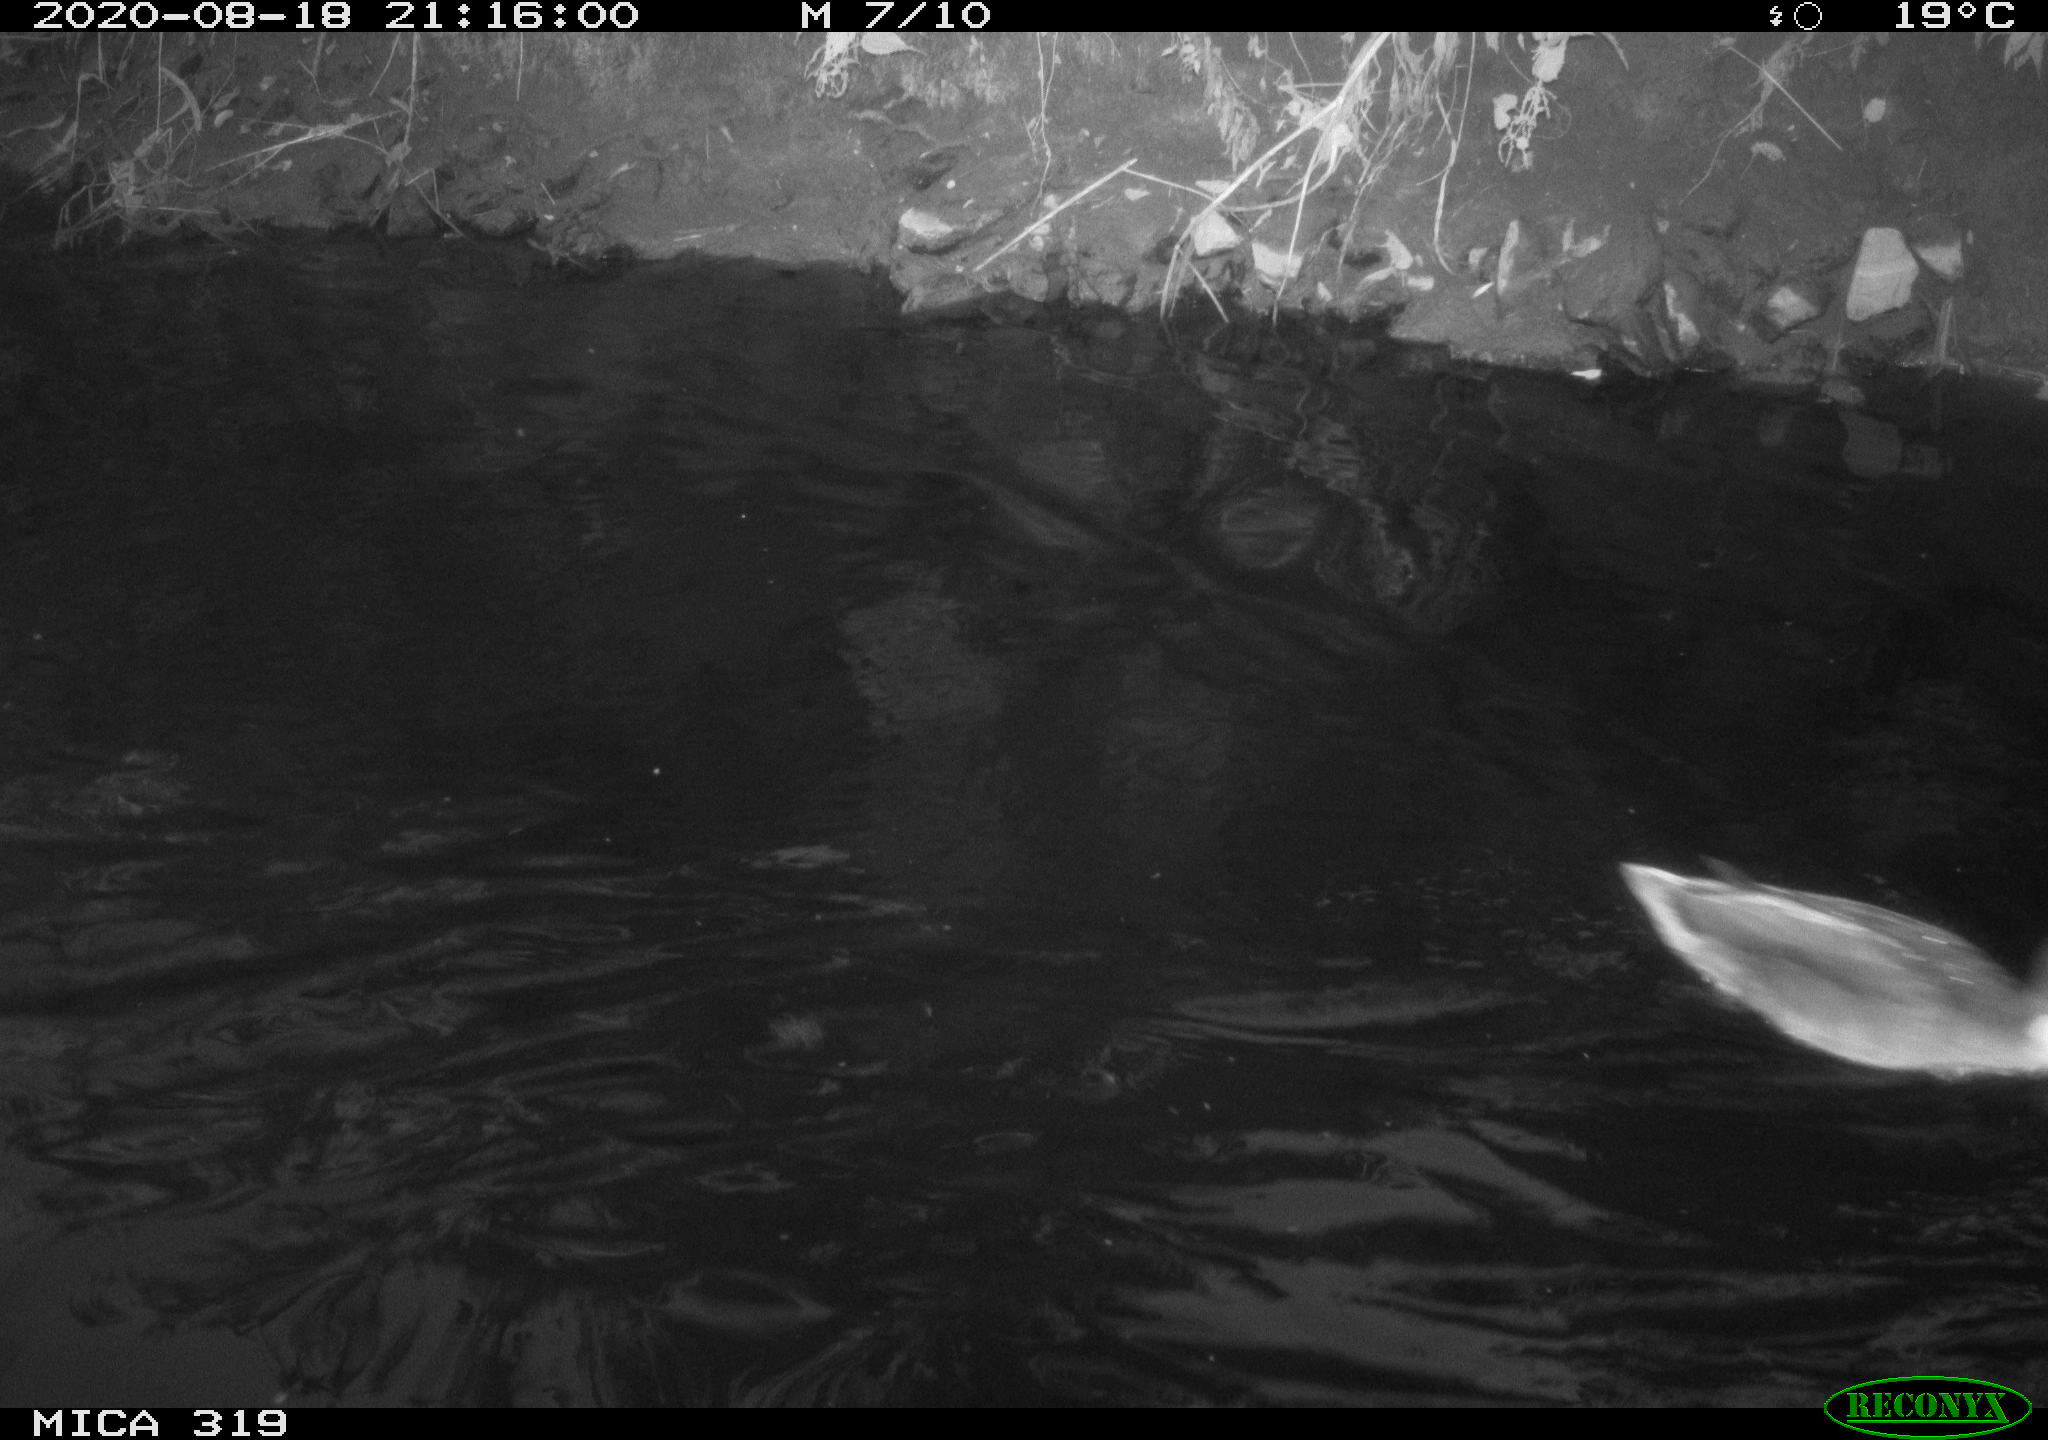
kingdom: Animalia
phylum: Chordata
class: Aves
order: Anseriformes
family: Anatidae
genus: Anas
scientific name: Anas platyrhynchos
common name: Mallard
